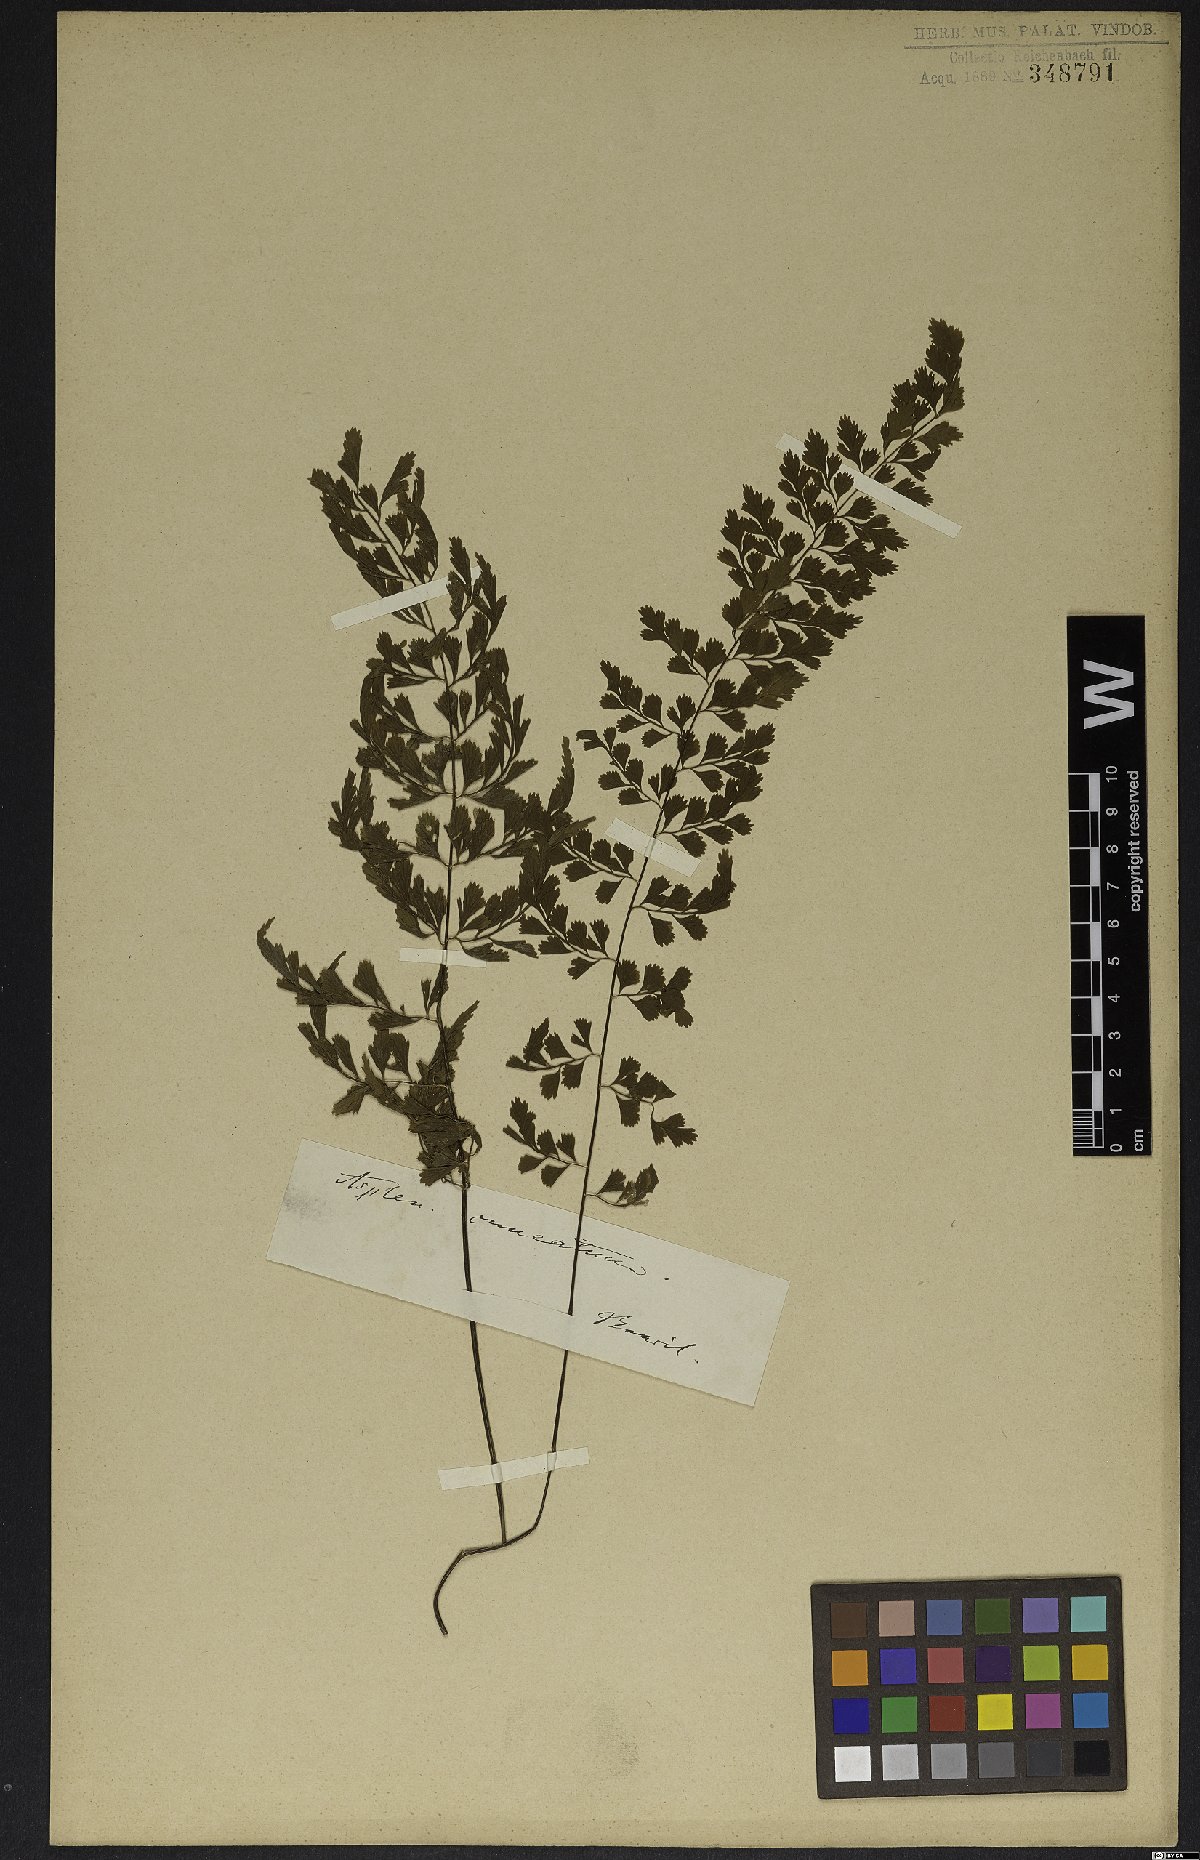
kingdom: Plantae
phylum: Tracheophyta
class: Polypodiopsida
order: Polypodiales
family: Aspleniaceae
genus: Asplenium
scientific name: Asplenium cristatum
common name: Parsley spleenwort
